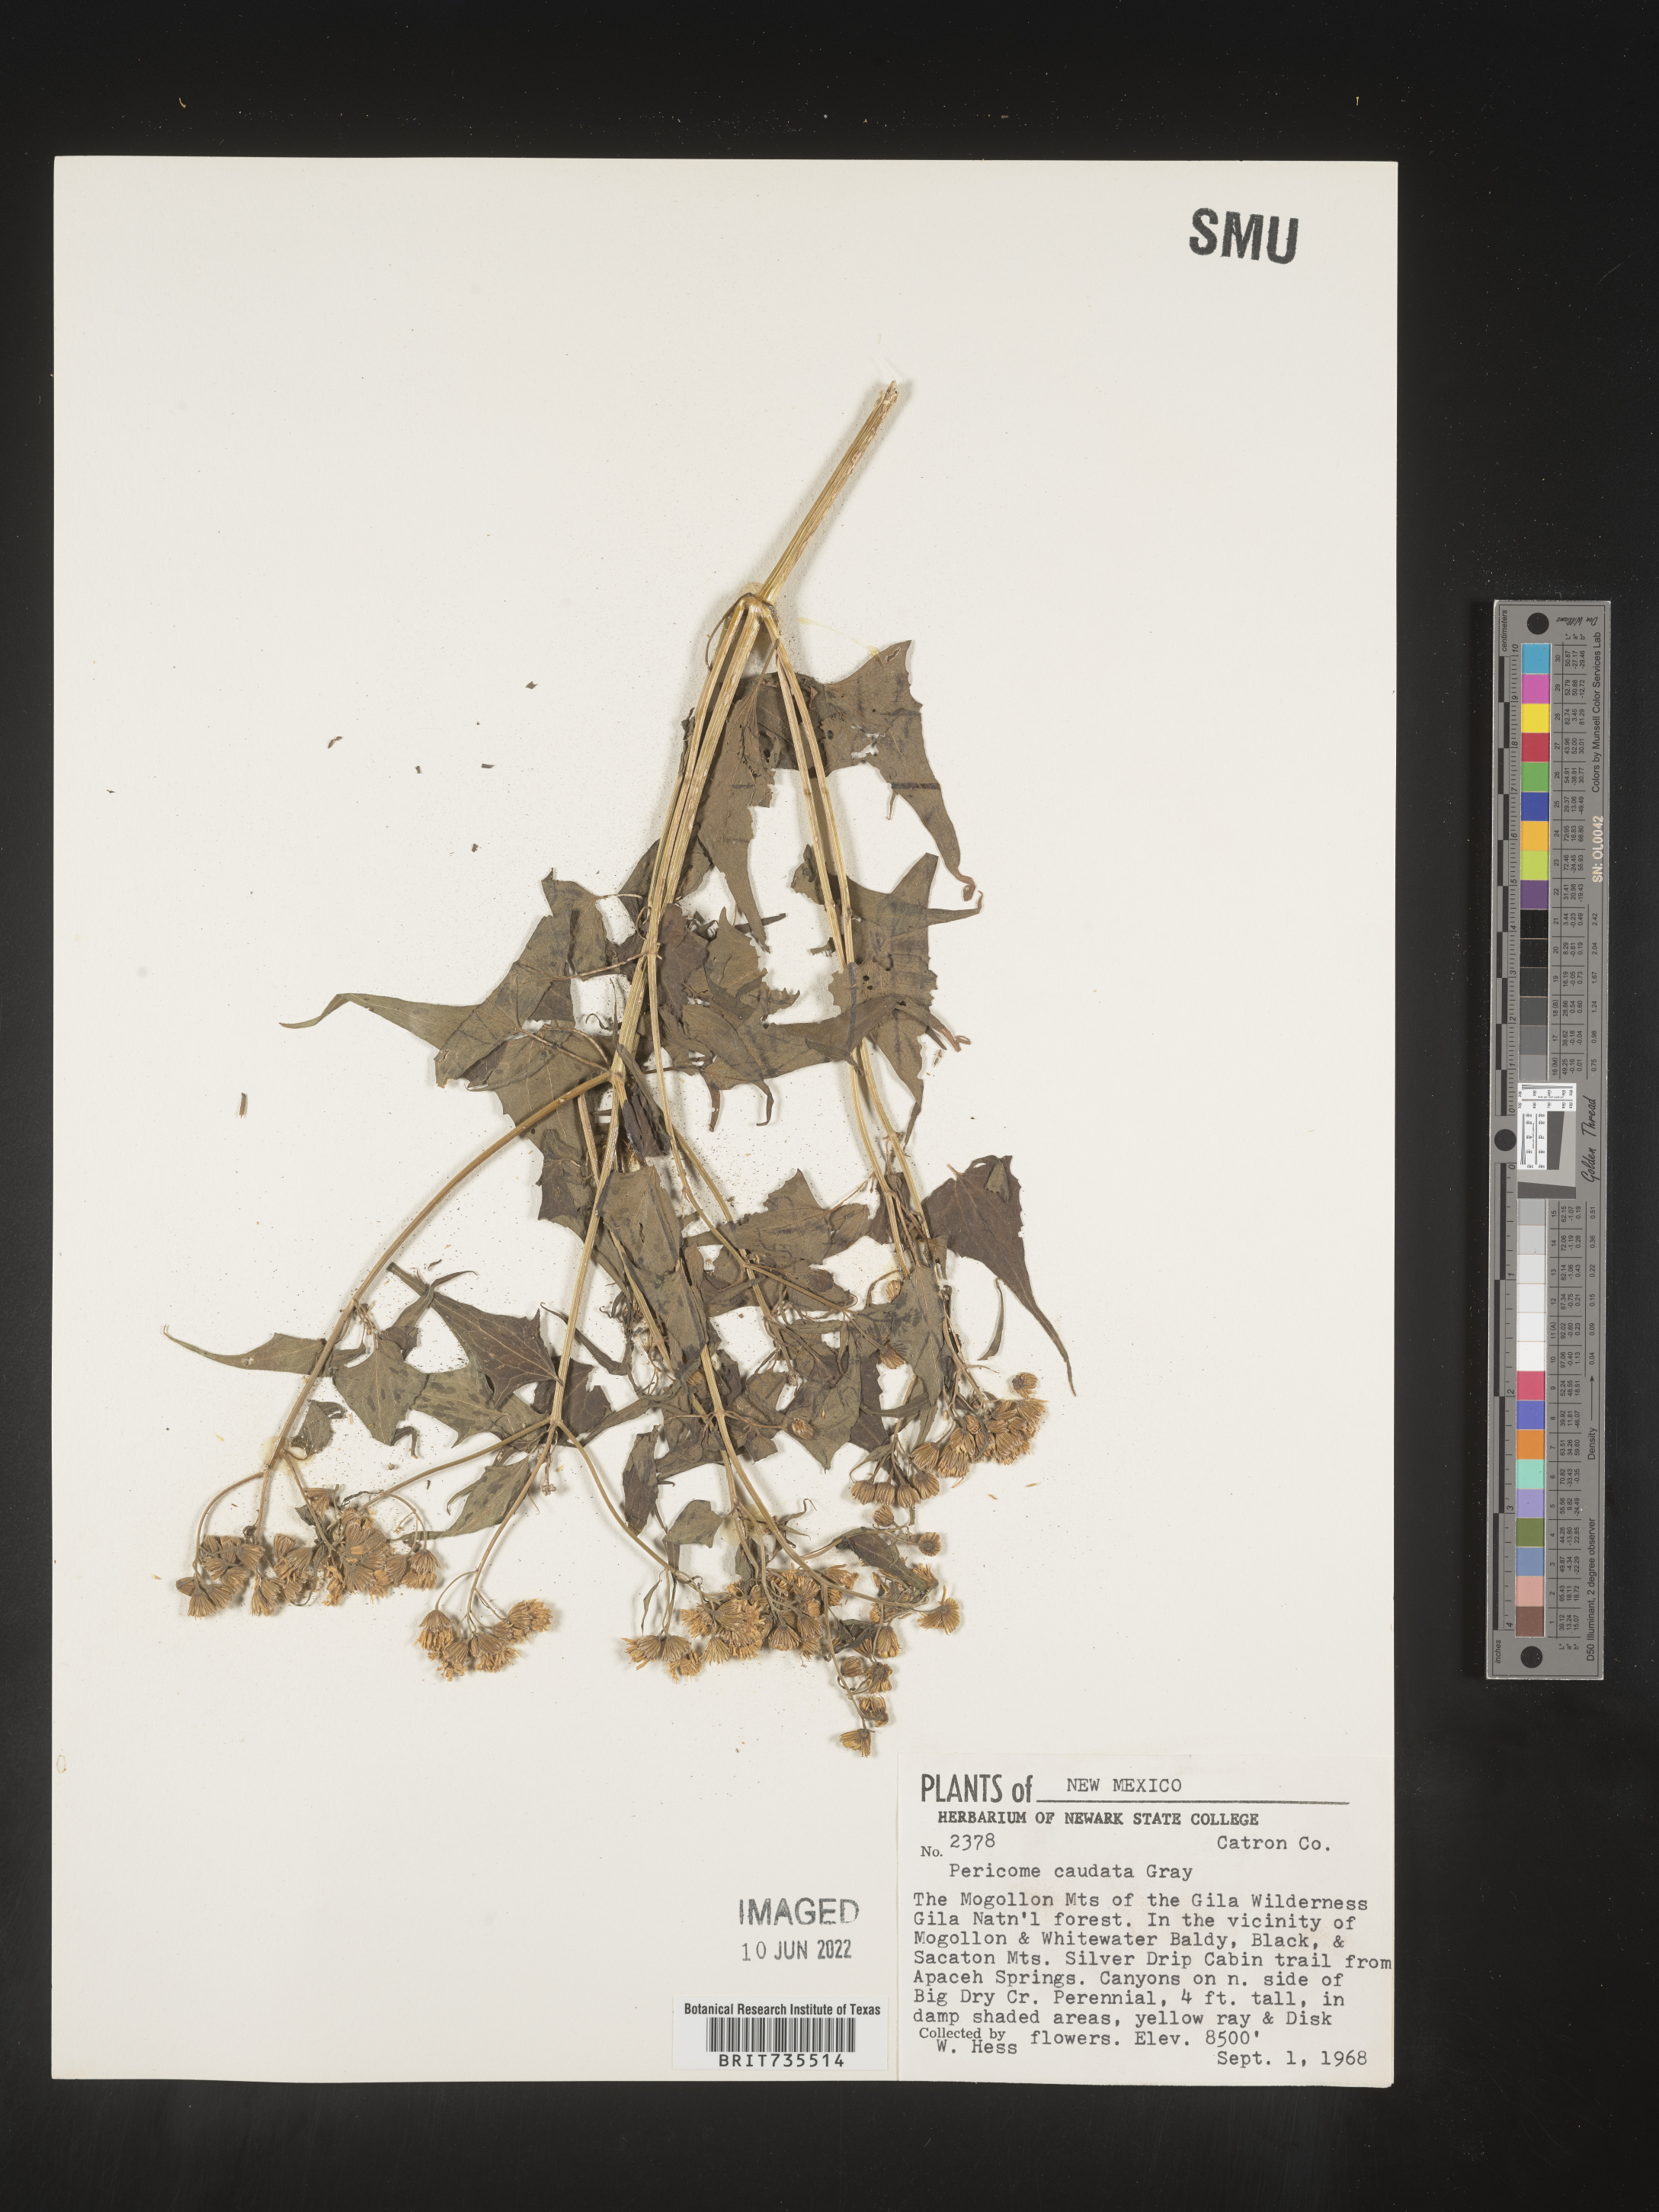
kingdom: Plantae
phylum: Tracheophyta
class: Magnoliopsida
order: Asterales
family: Asteraceae
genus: Pericome
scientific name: Pericome
